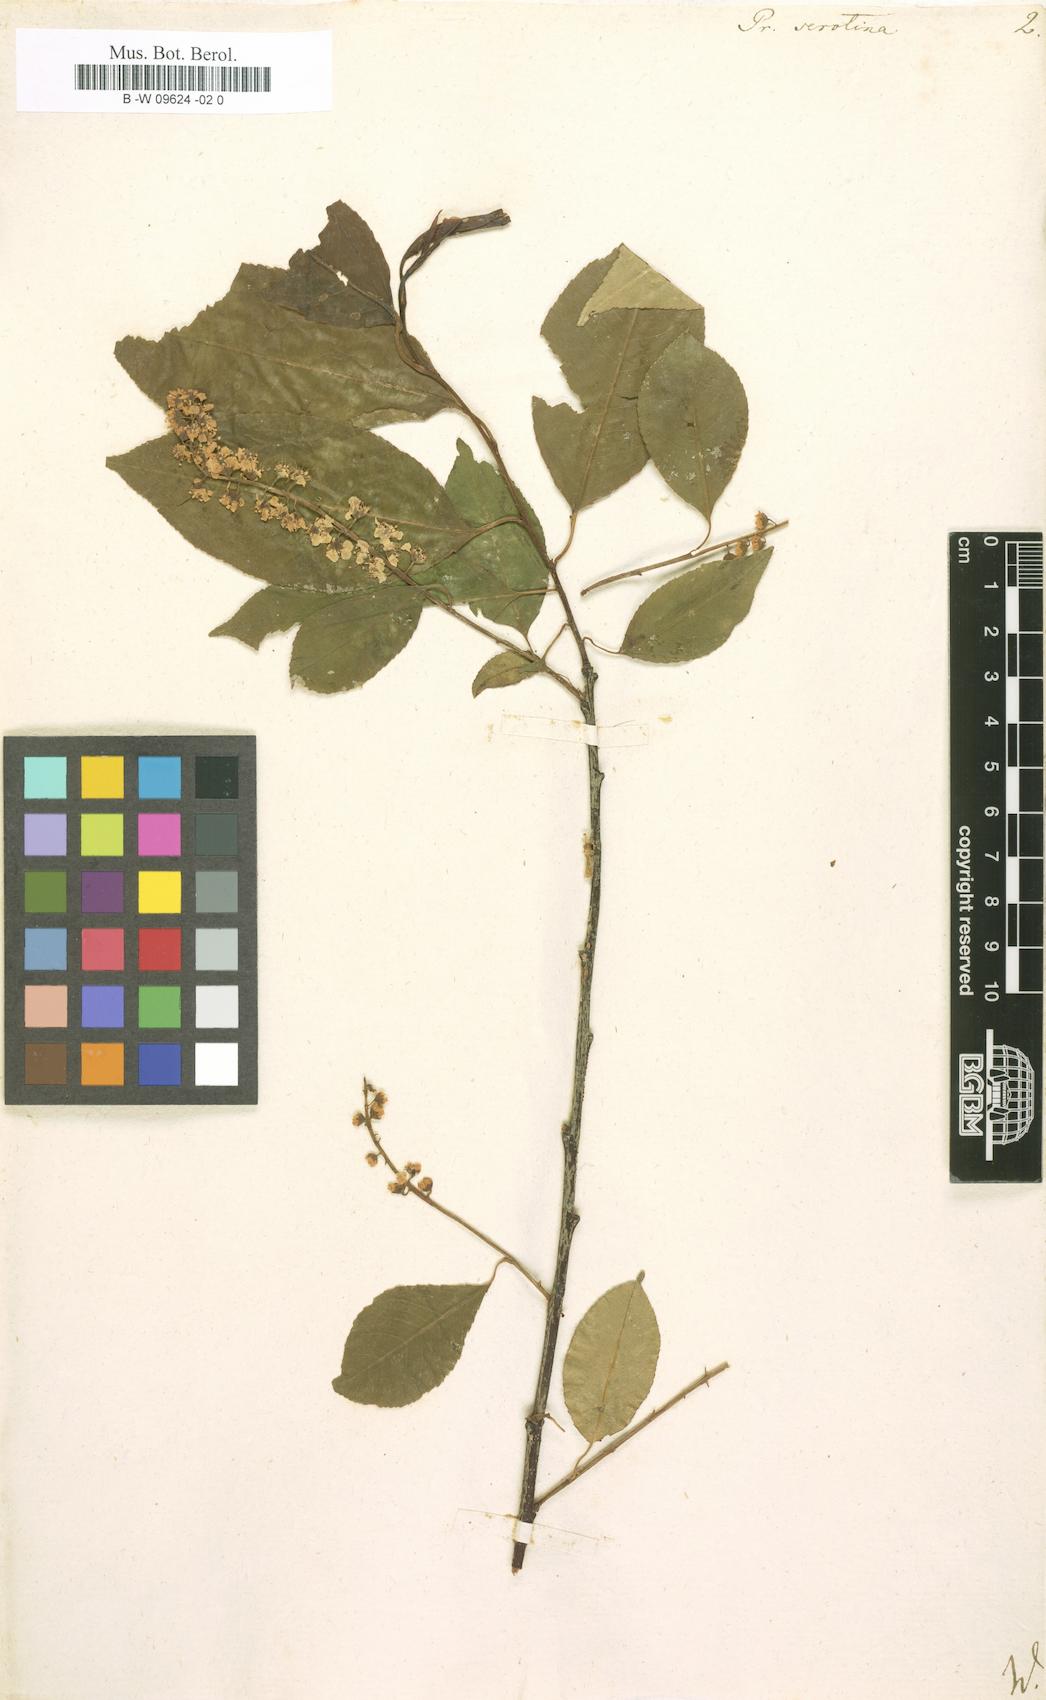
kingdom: Plantae
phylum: Tracheophyta
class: Magnoliopsida
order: Rosales
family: Rosaceae
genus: Prunus
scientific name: Prunus serotina
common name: Black cherry
